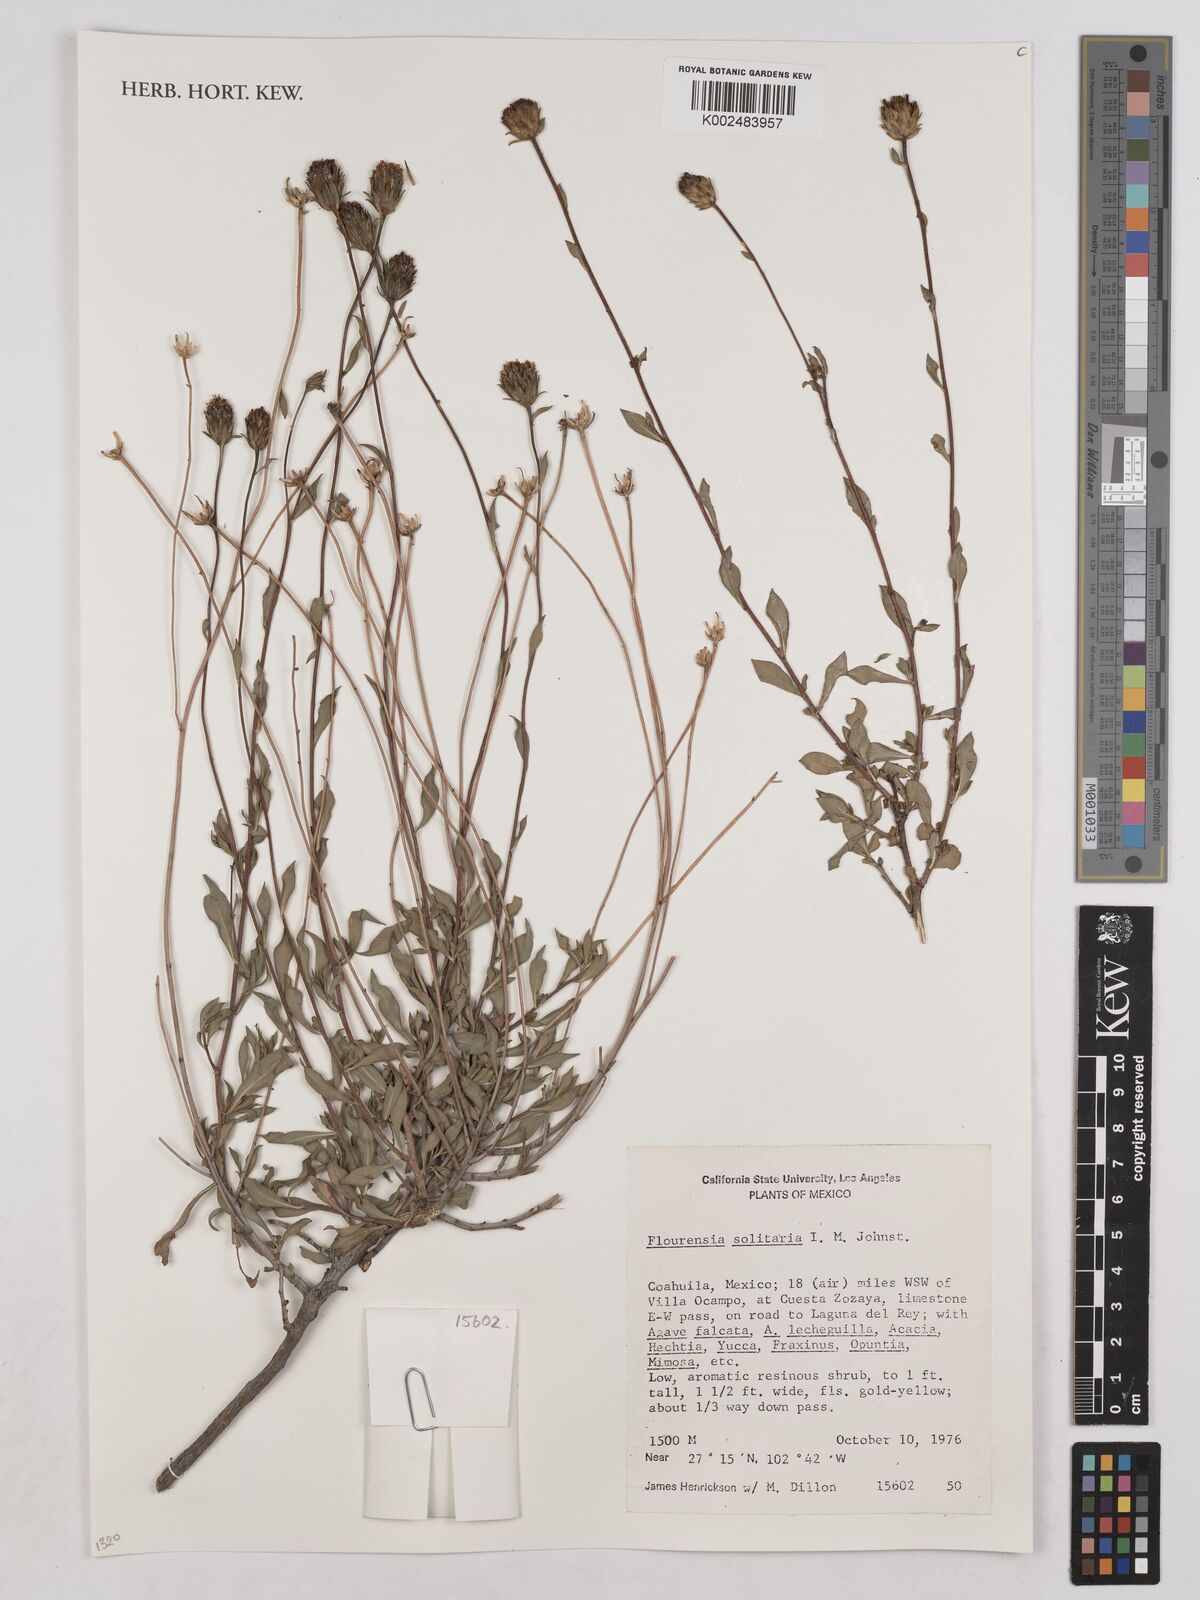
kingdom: Plantae
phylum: Tracheophyta
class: Magnoliopsida
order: Asterales
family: Asteraceae
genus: Flourensia
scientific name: Flourensia solitaria
